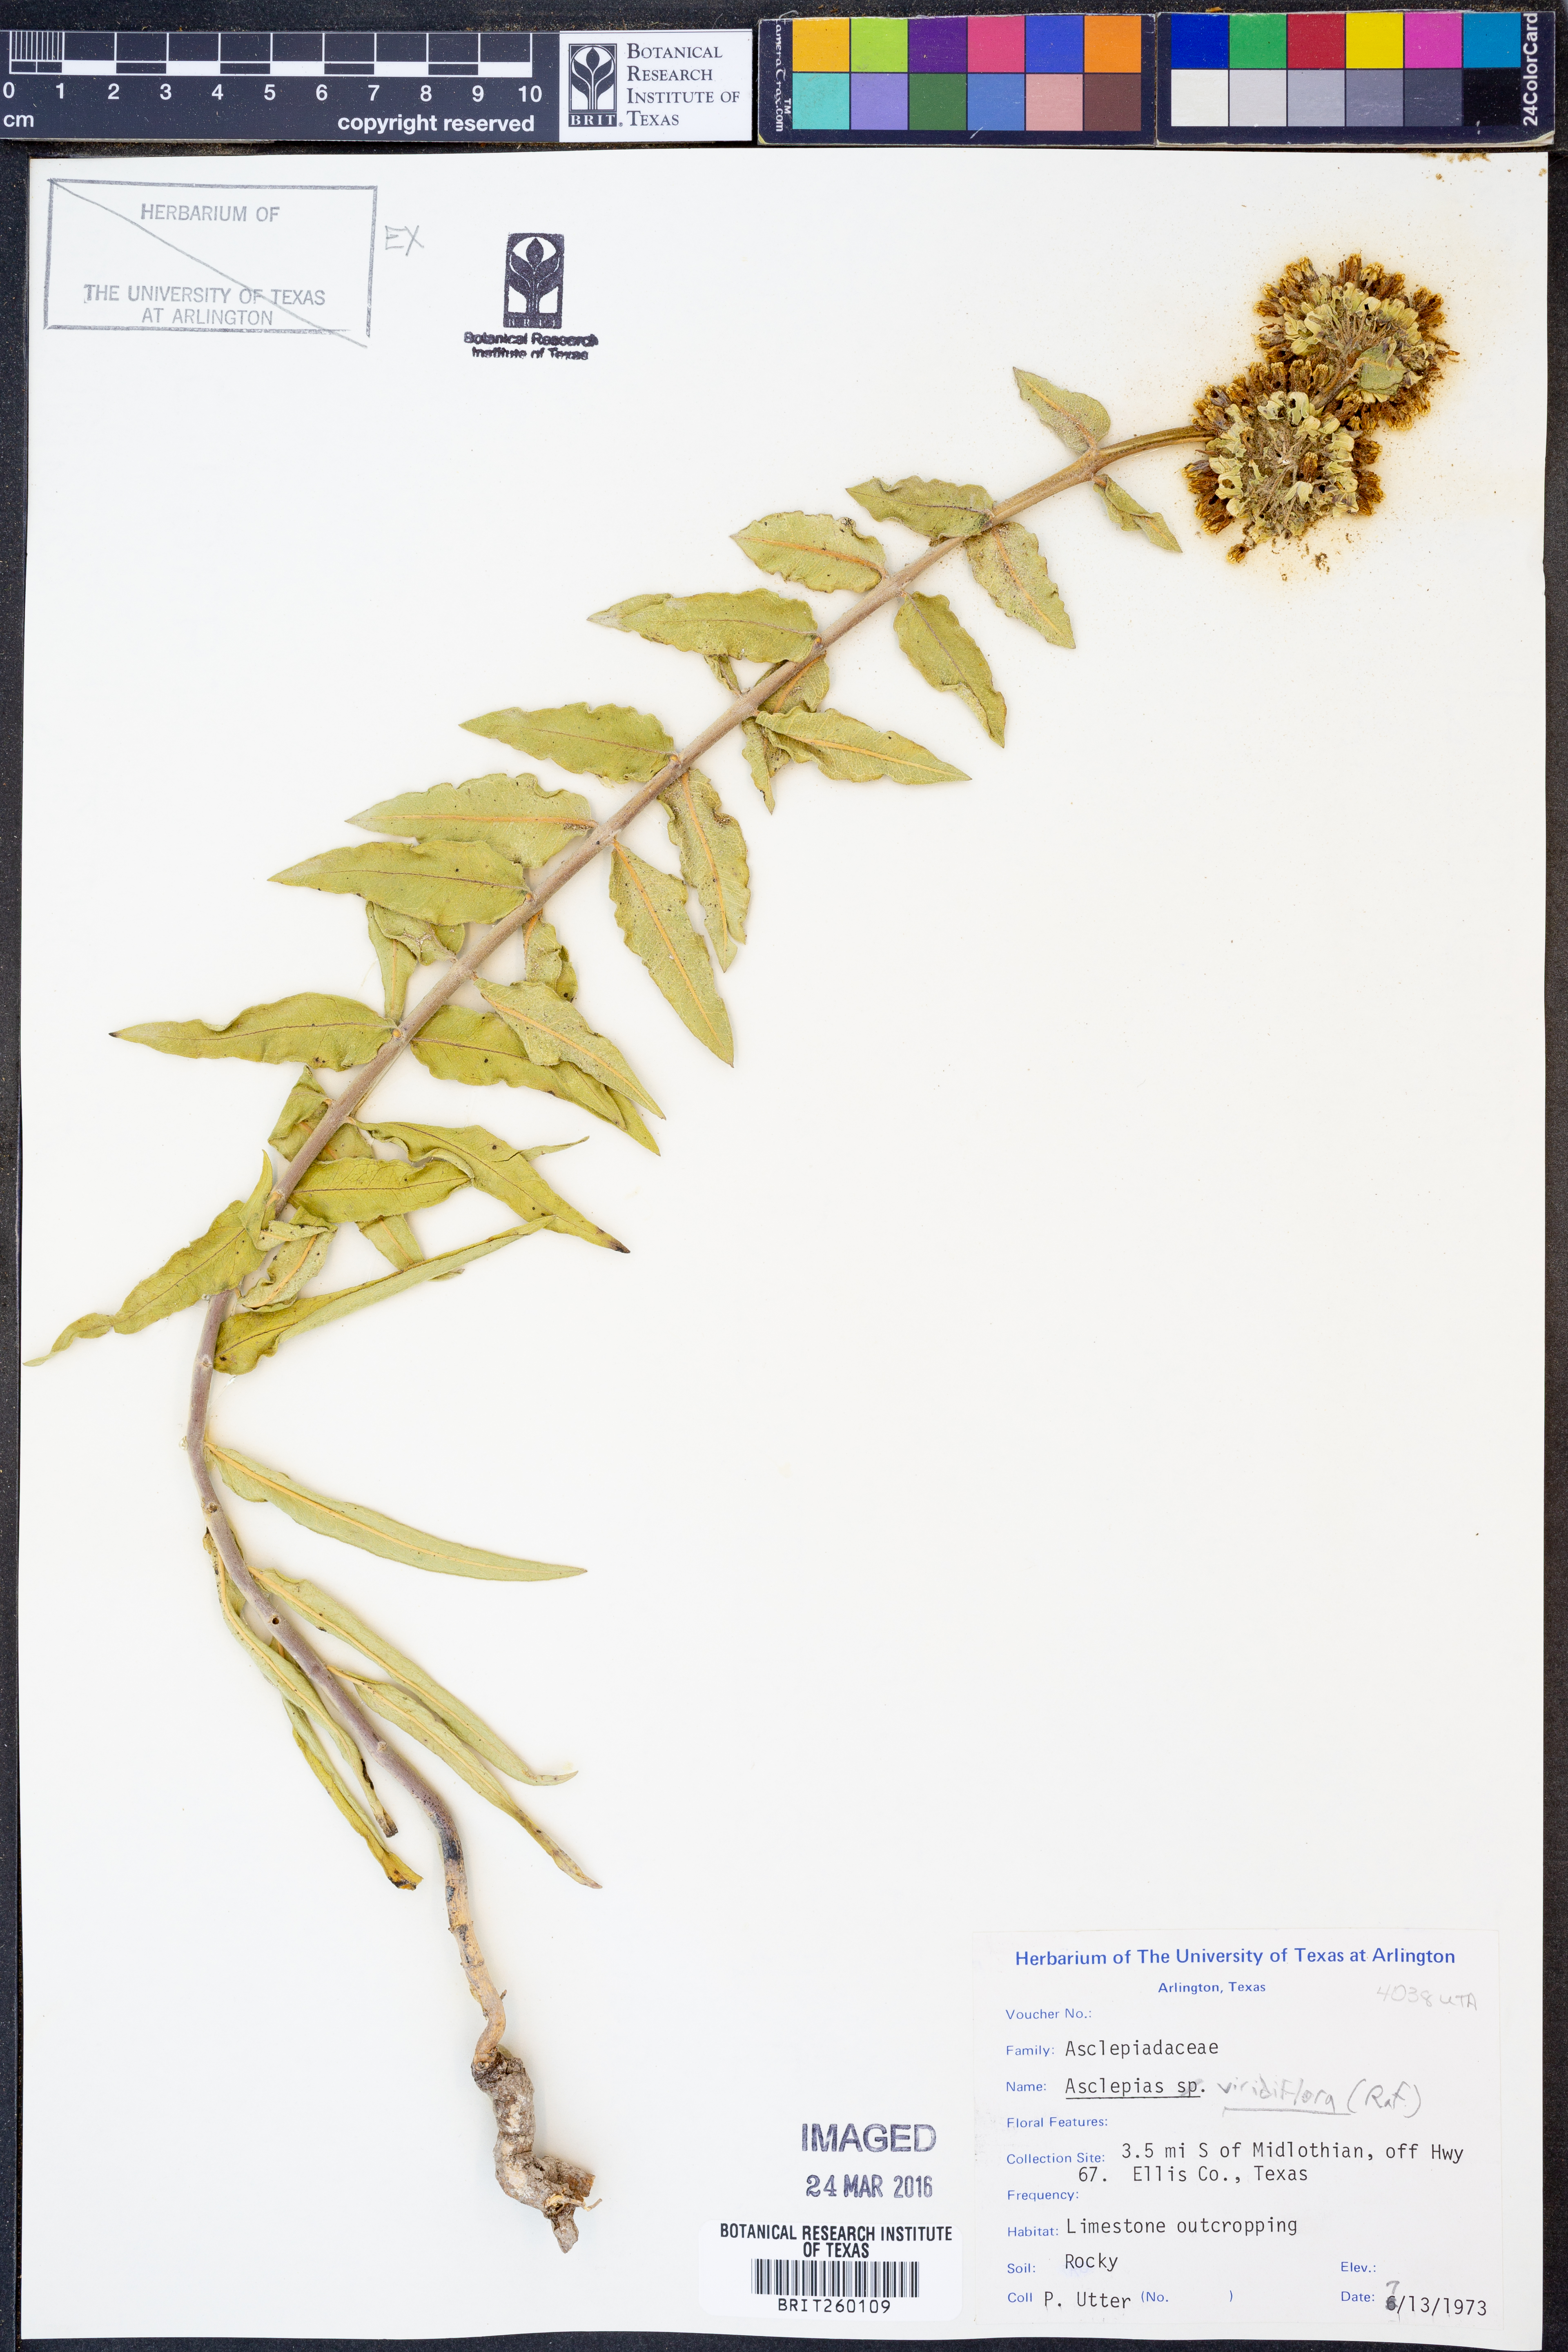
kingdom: Plantae
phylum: Tracheophyta
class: Magnoliopsida
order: Gentianales
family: Apocynaceae
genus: Asclepias
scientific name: Asclepias viridiflora
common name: Green comet milkweed
